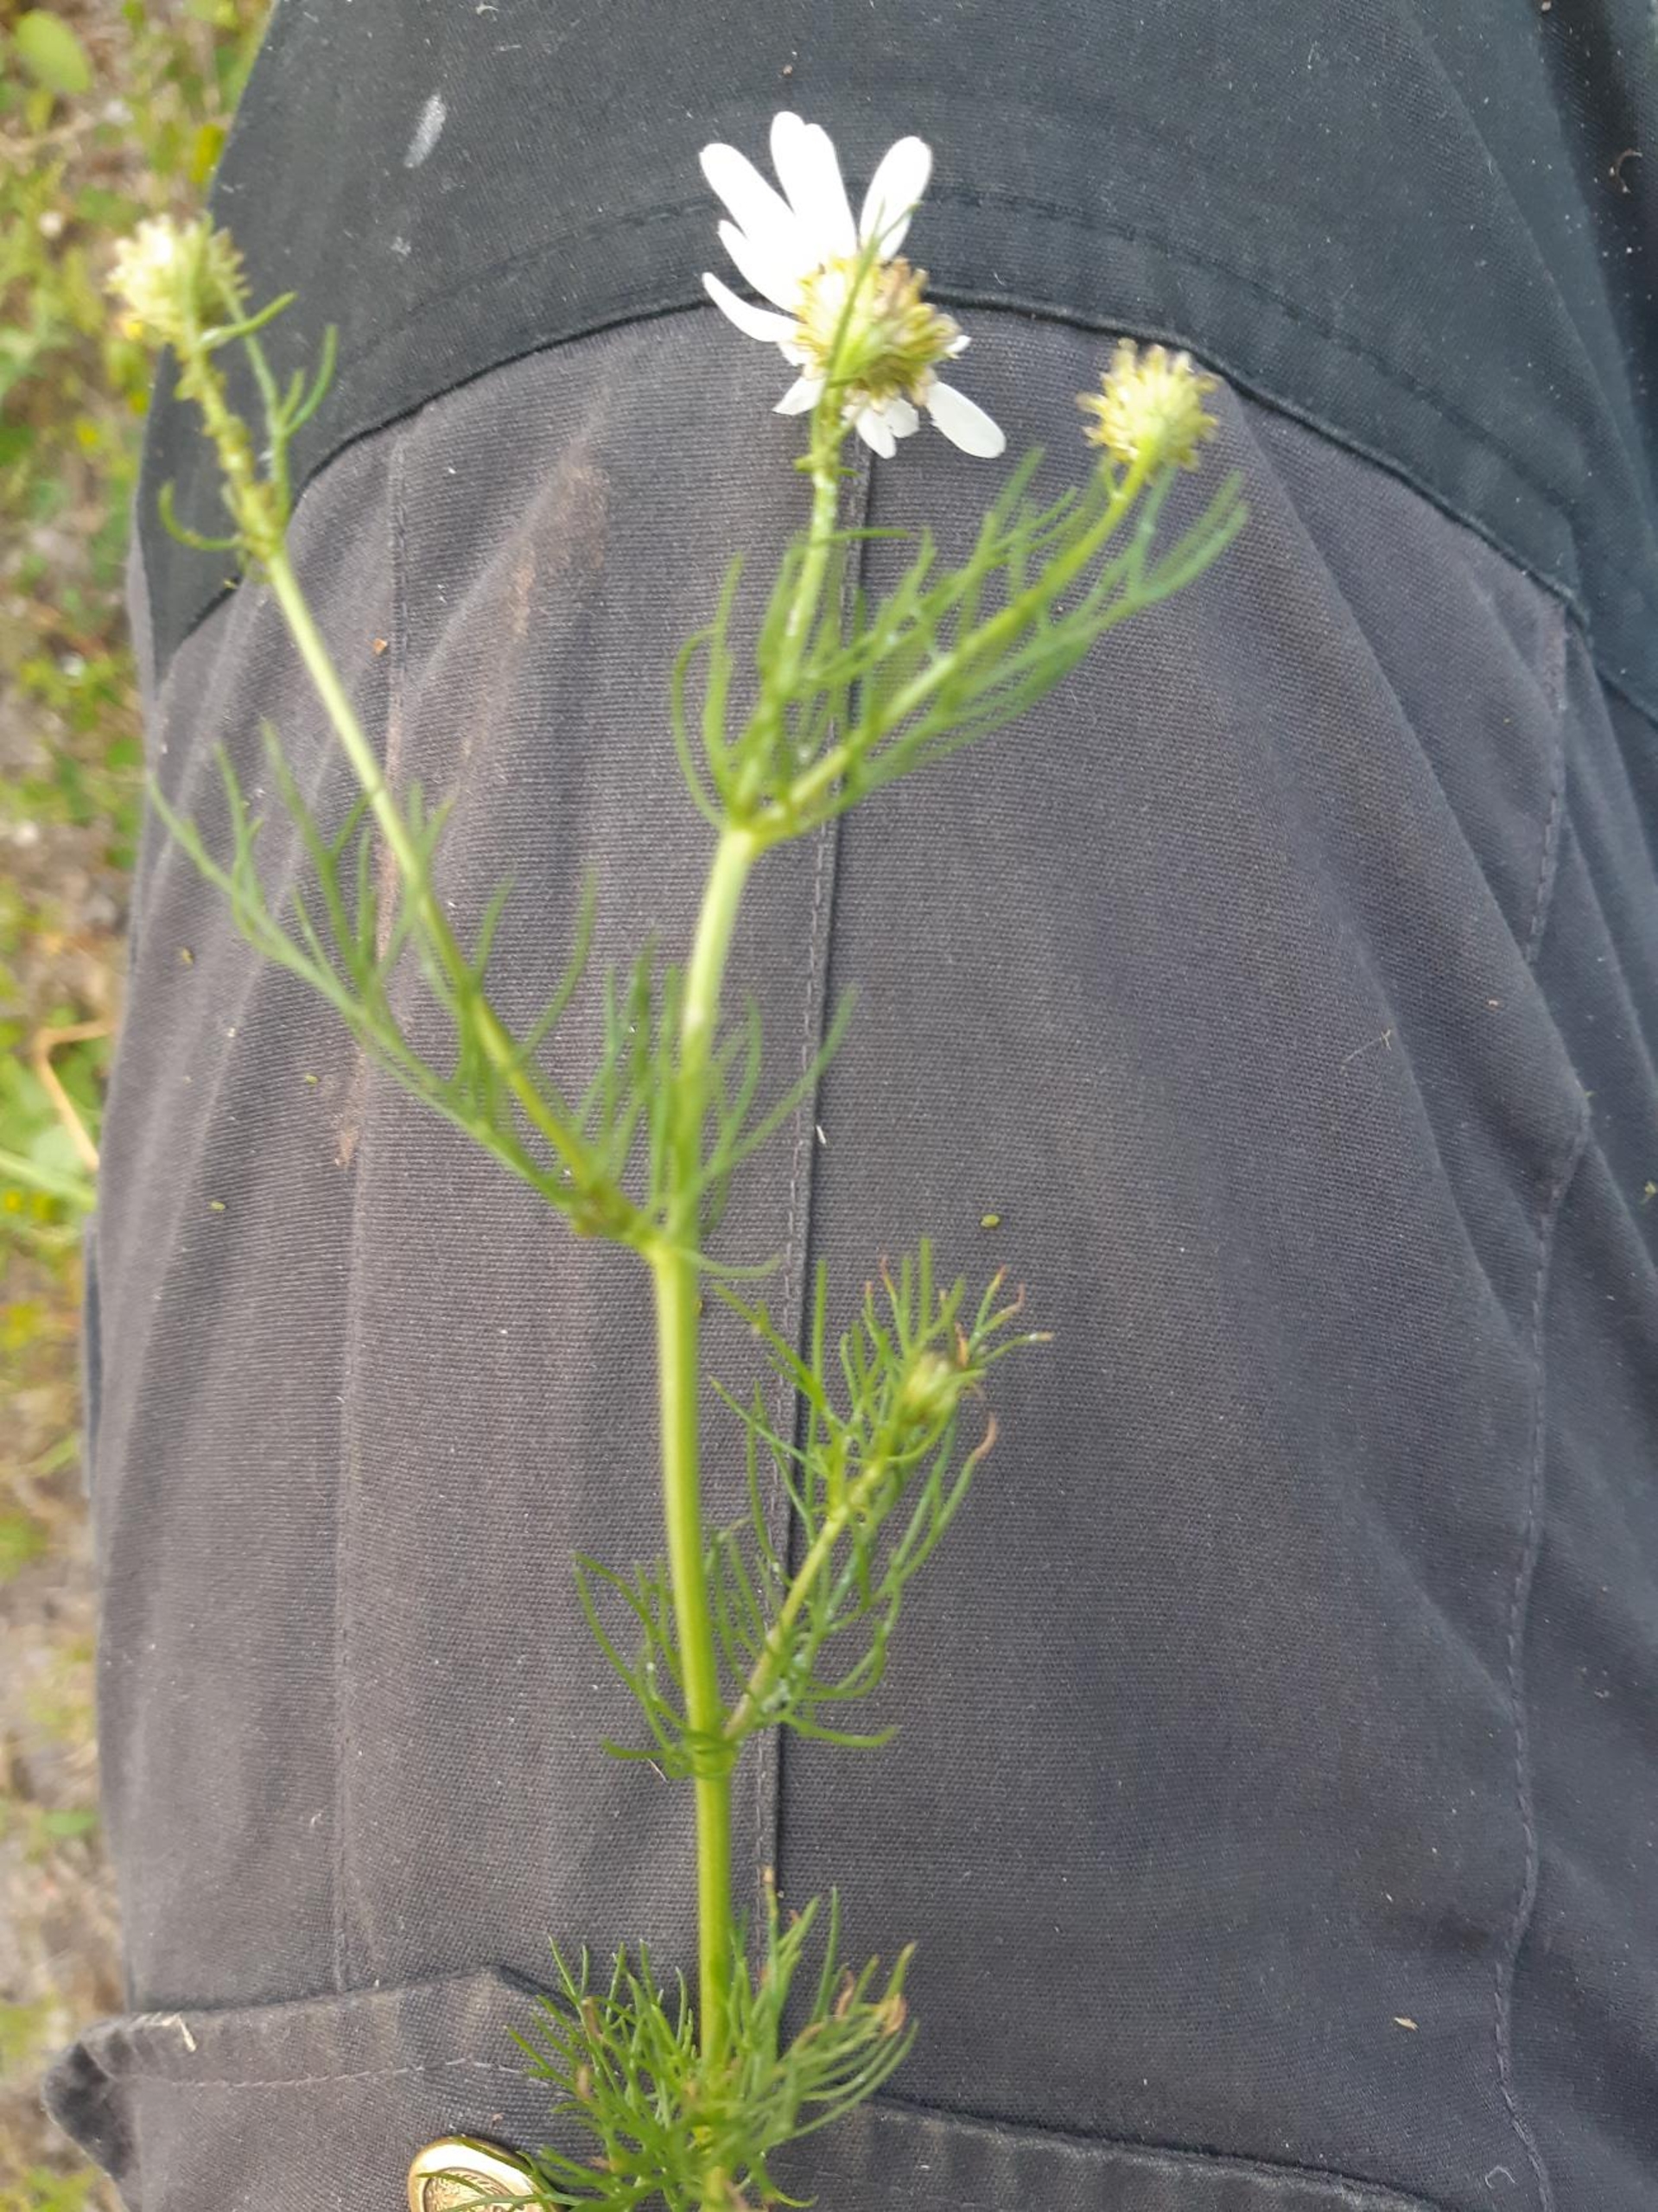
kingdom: Plantae
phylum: Tracheophyta
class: Magnoliopsida
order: Asterales
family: Asteraceae
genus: Tripleurospermum
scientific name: Tripleurospermum inodorum
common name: Lugtløs kamille
